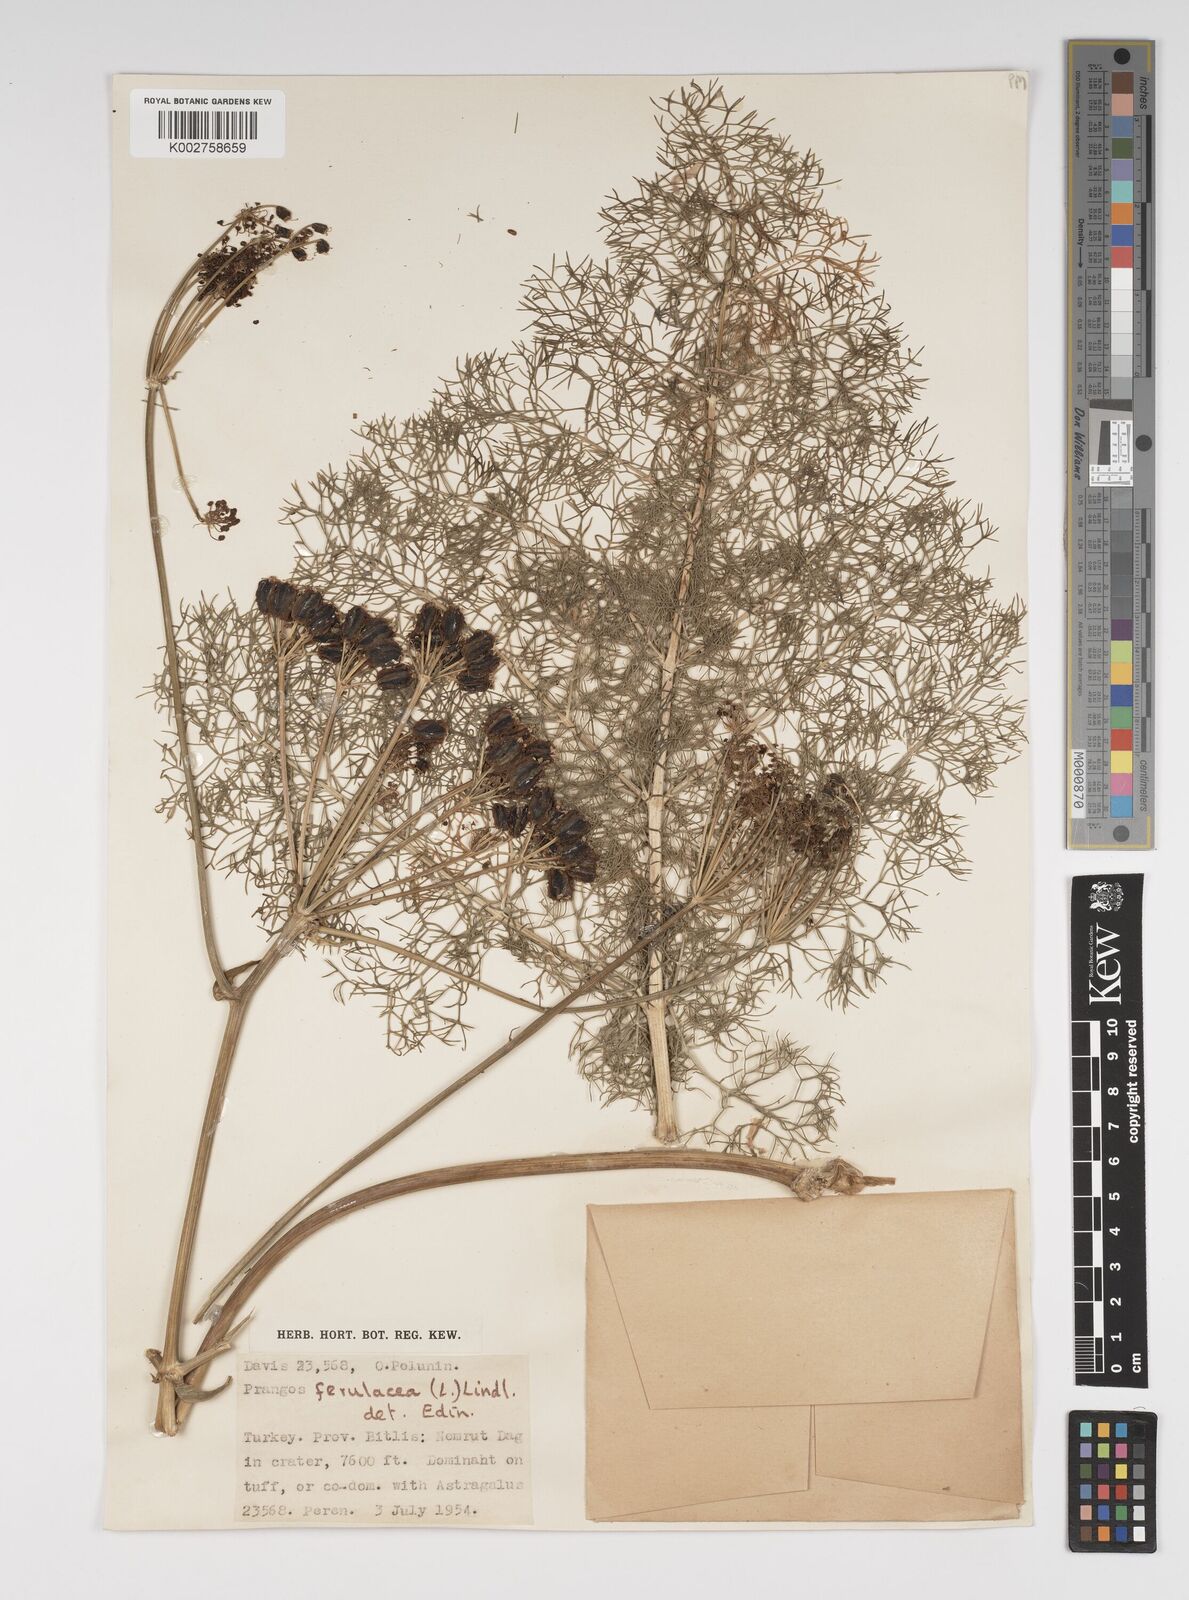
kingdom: Plantae
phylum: Tracheophyta
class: Magnoliopsida
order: Apiales
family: Apiaceae
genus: Prangos
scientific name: Prangos ferulacea
